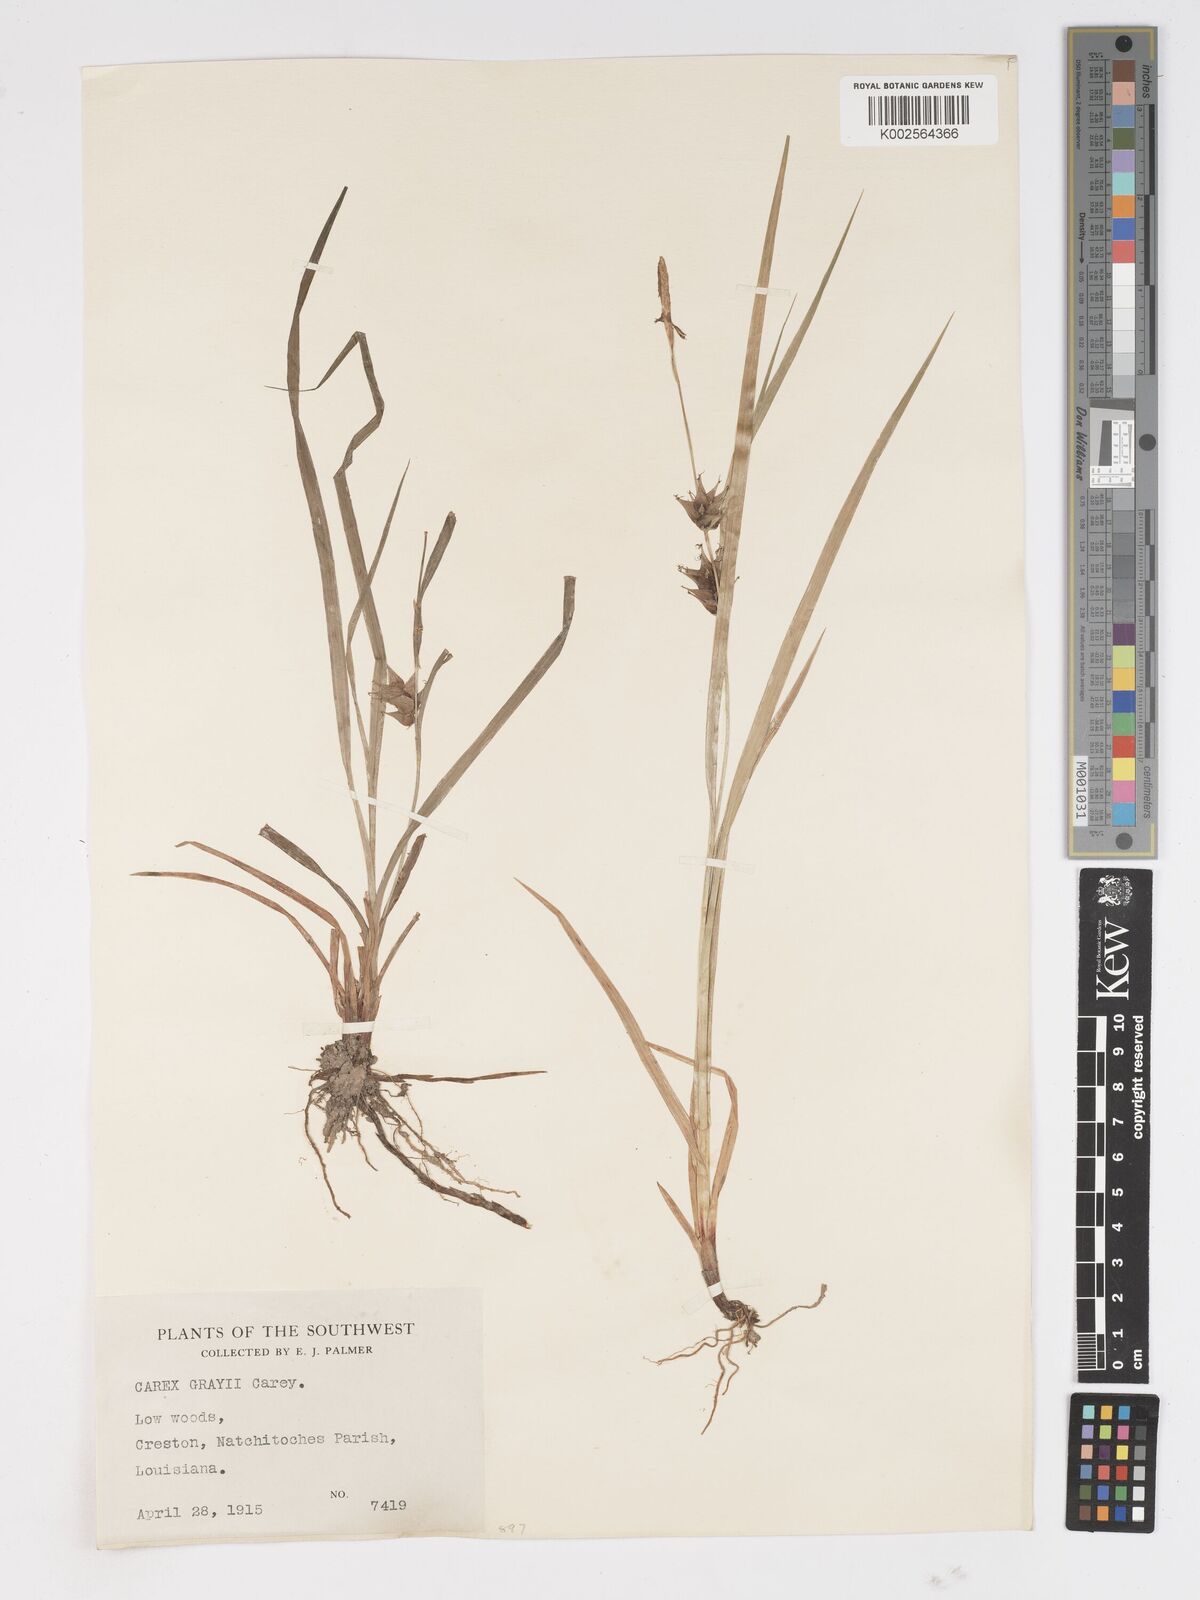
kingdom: Plantae
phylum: Tracheophyta
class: Liliopsida
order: Poales
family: Cyperaceae
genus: Carex
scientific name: Carex grayi
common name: Asa gray's sedge
